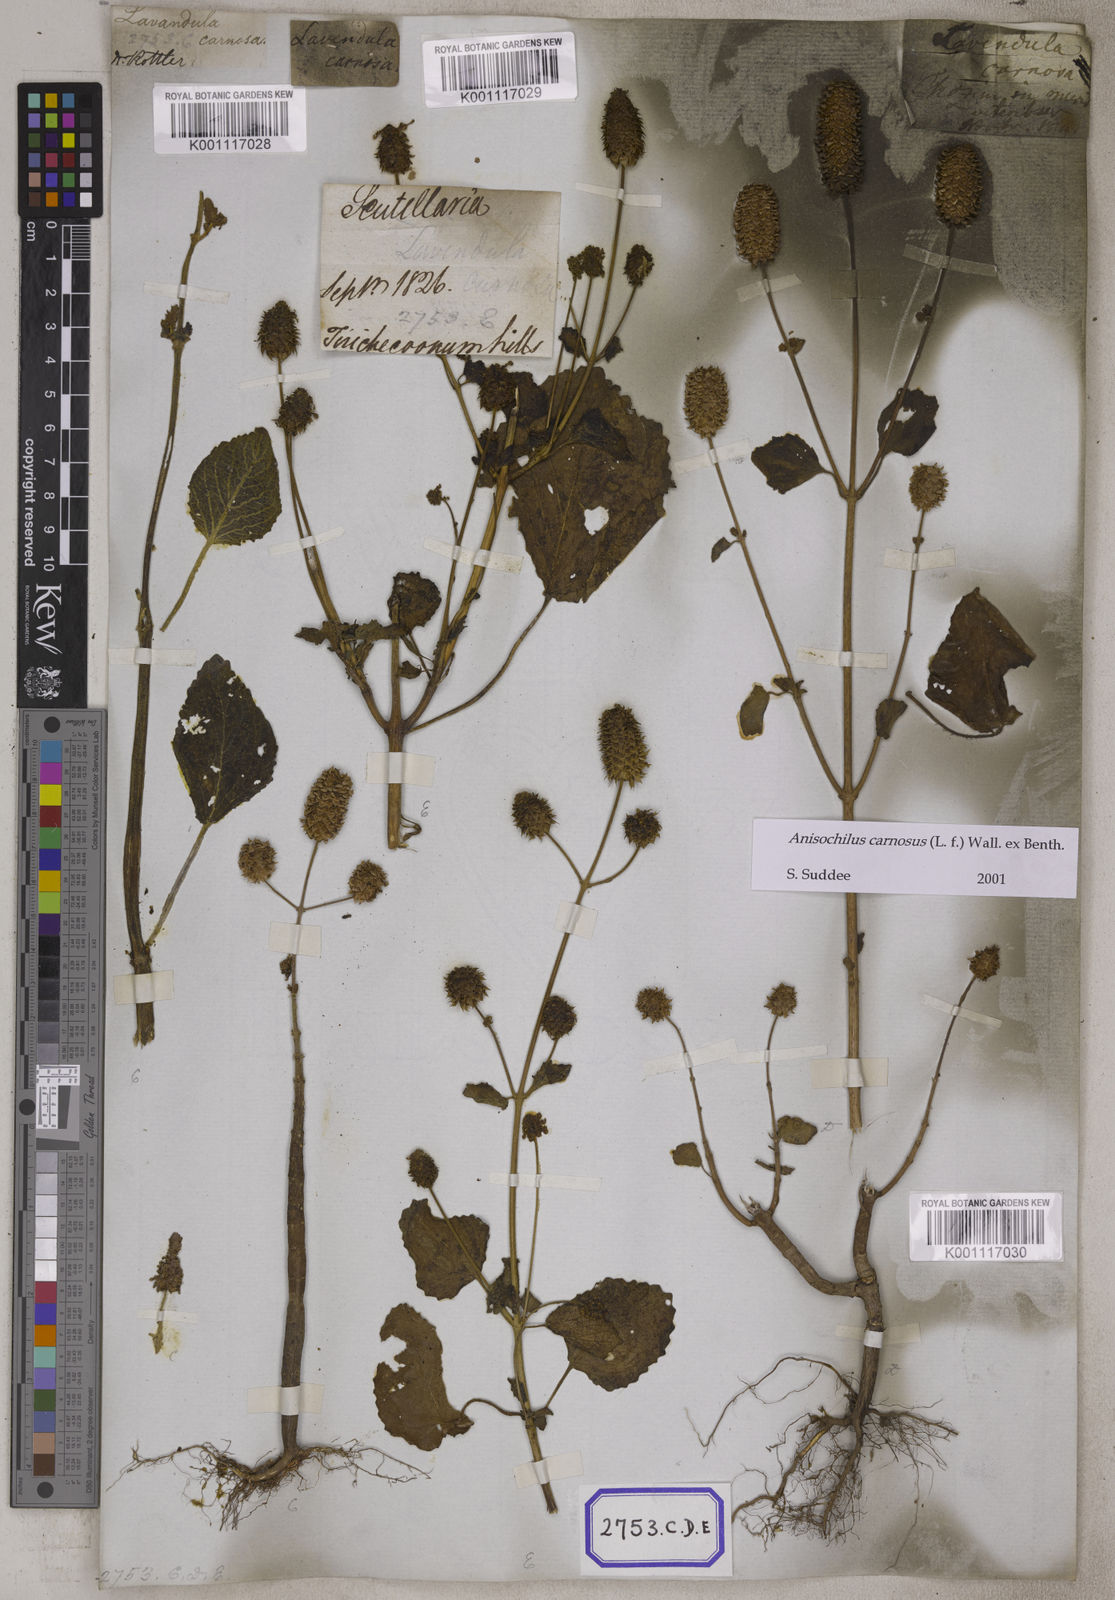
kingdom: Plantae
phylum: Tracheophyta
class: Magnoliopsida
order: Lamiales
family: Lamiaceae
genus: Anisochilus
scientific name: Anisochilus
